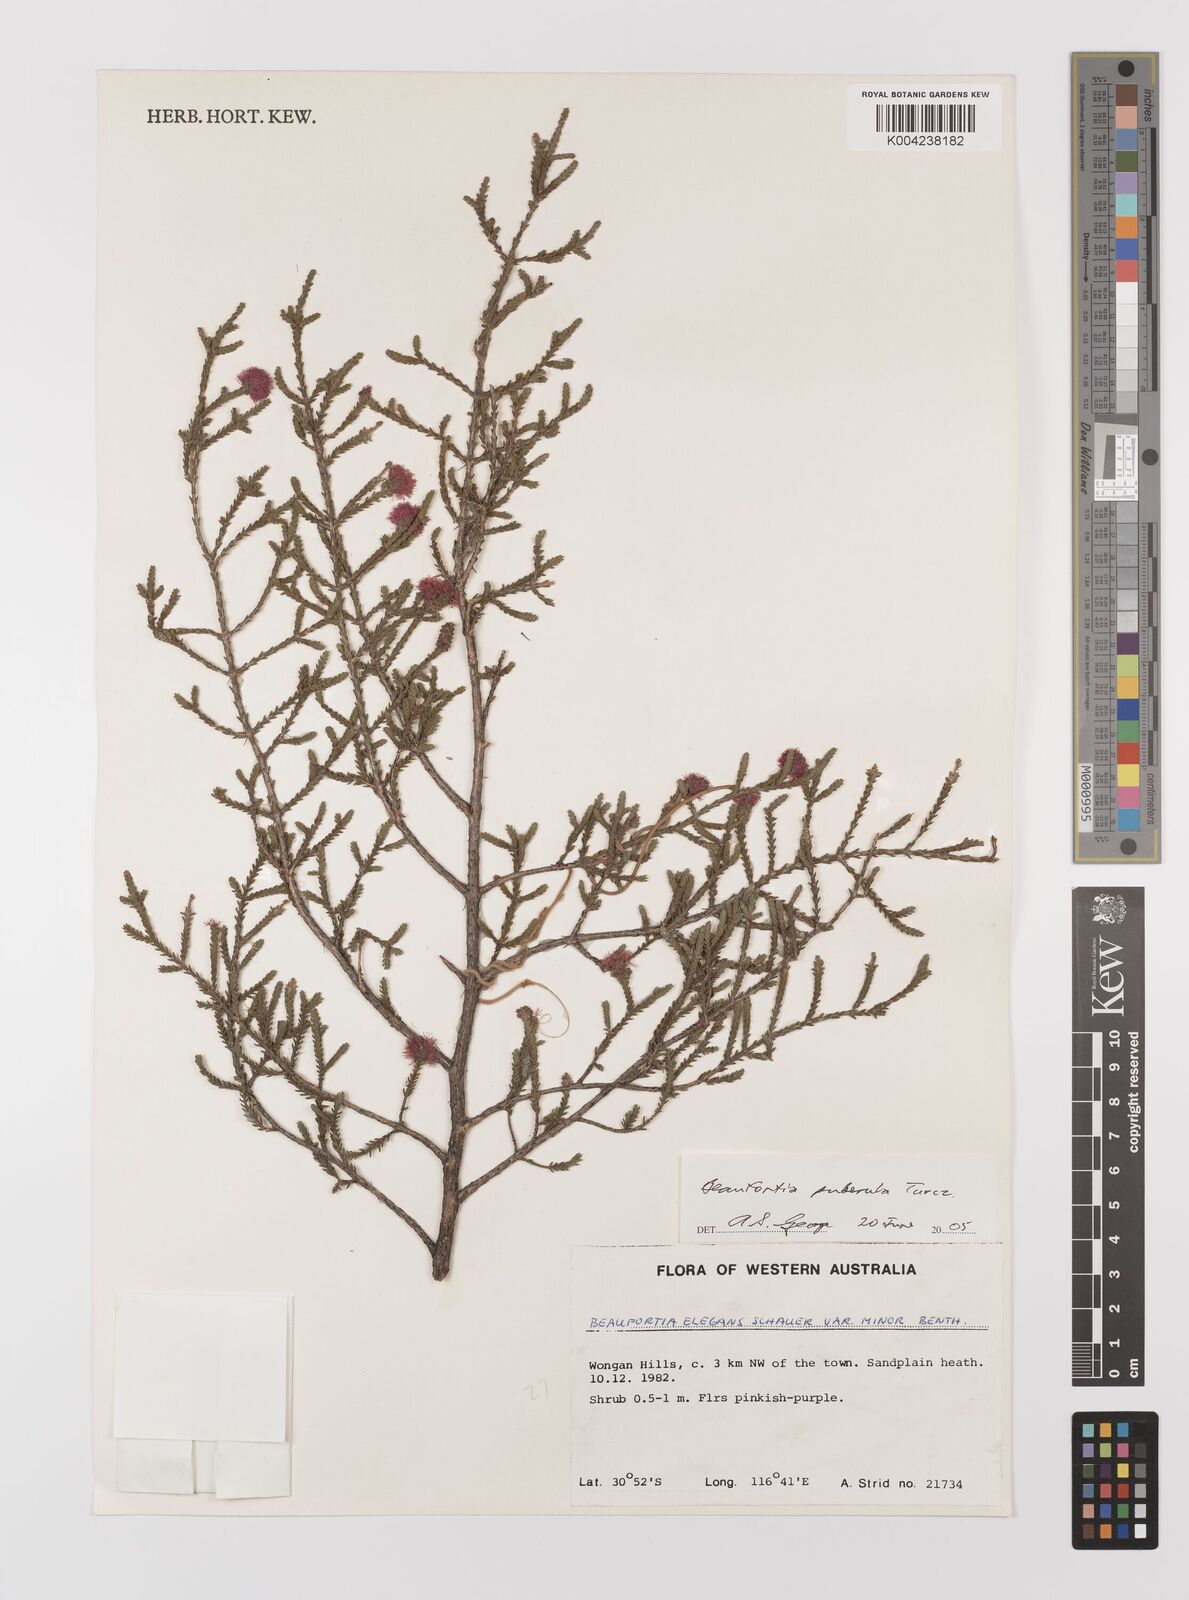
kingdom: Plantae
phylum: Tracheophyta
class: Magnoliopsida
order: Myrtales
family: Myrtaceae
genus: Melaleuca
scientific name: Melaleuca micrantha
